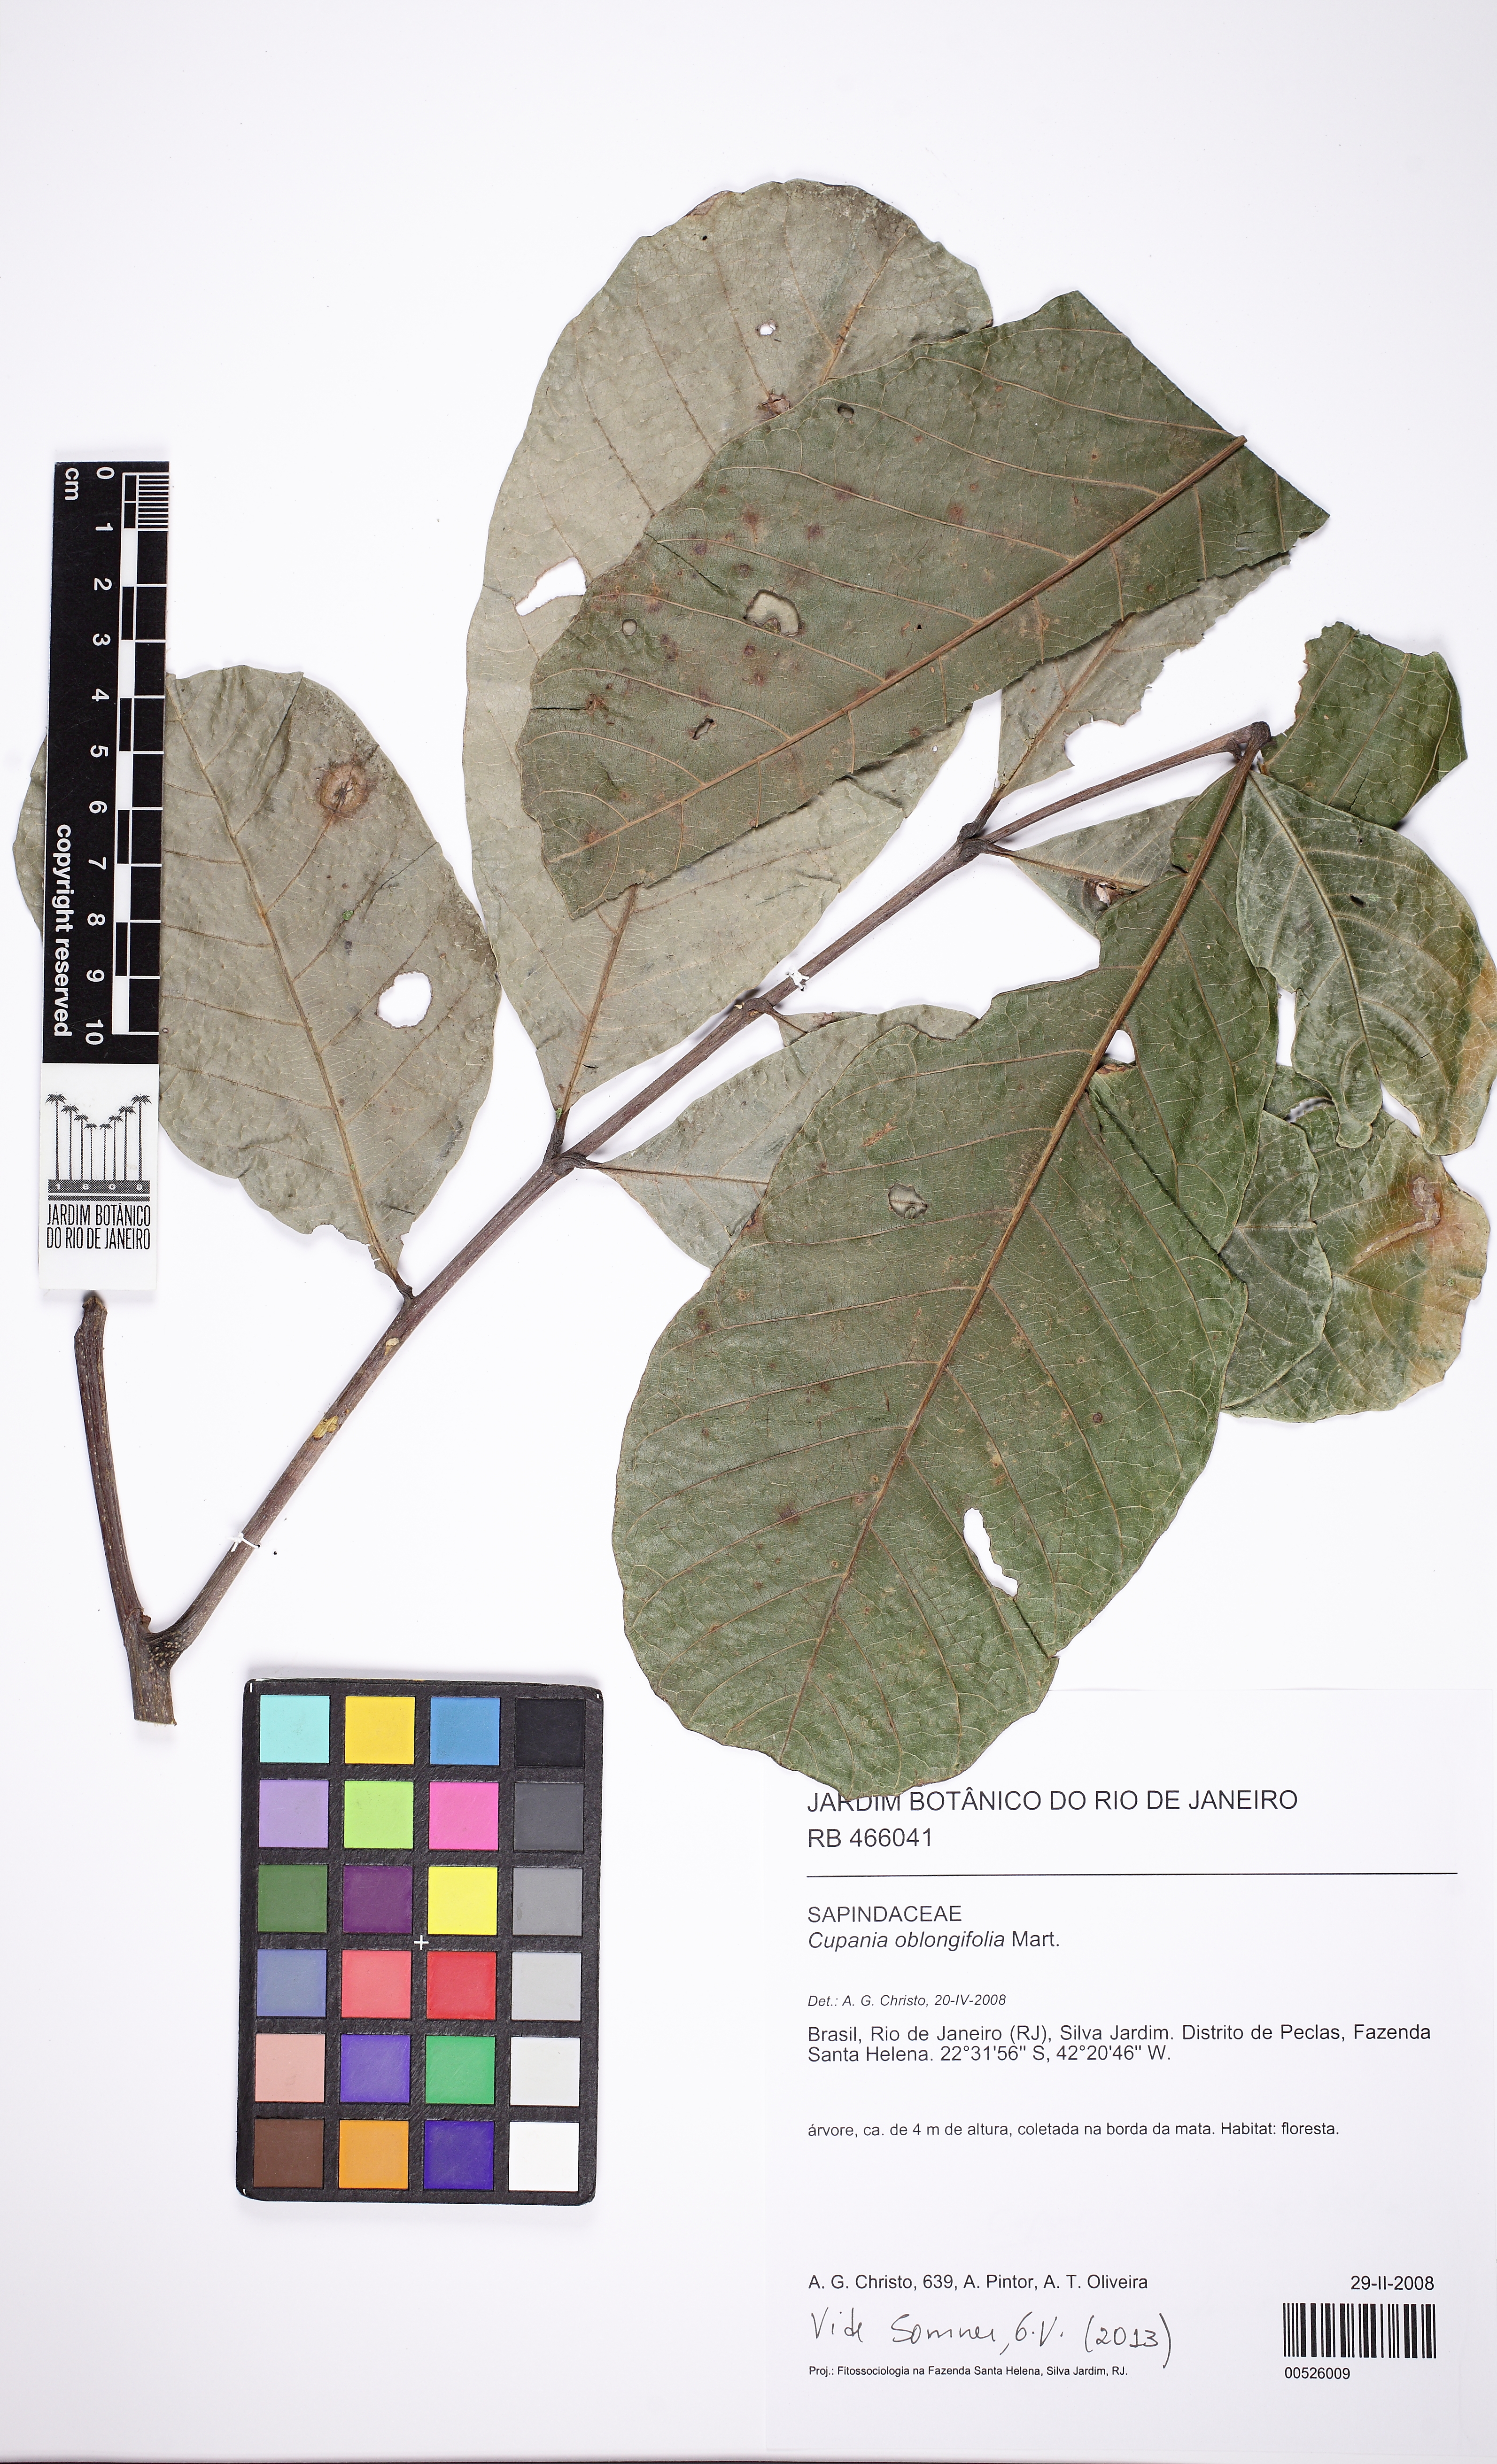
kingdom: Plantae
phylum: Tracheophyta
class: Magnoliopsida
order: Sapindales
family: Sapindaceae
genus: Cupania
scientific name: Cupania oblongifolia
